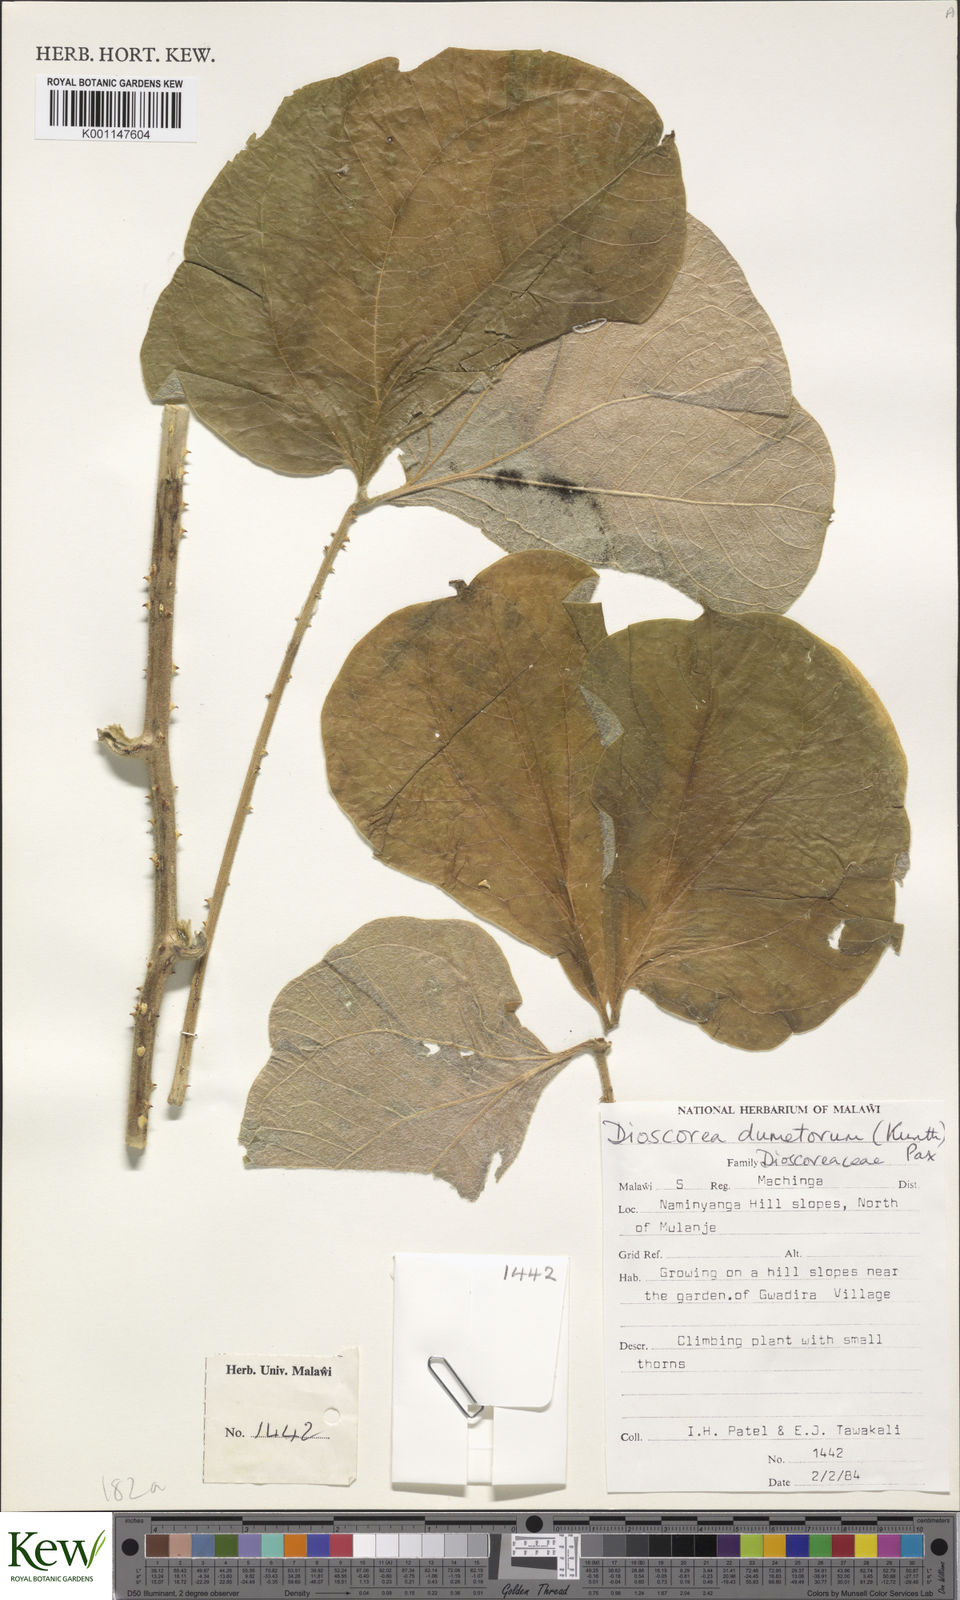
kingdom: Plantae
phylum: Tracheophyta
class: Liliopsida
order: Dioscoreales
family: Dioscoreaceae
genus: Dioscorea
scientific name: Dioscorea dumetorum
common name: African bitter yam
